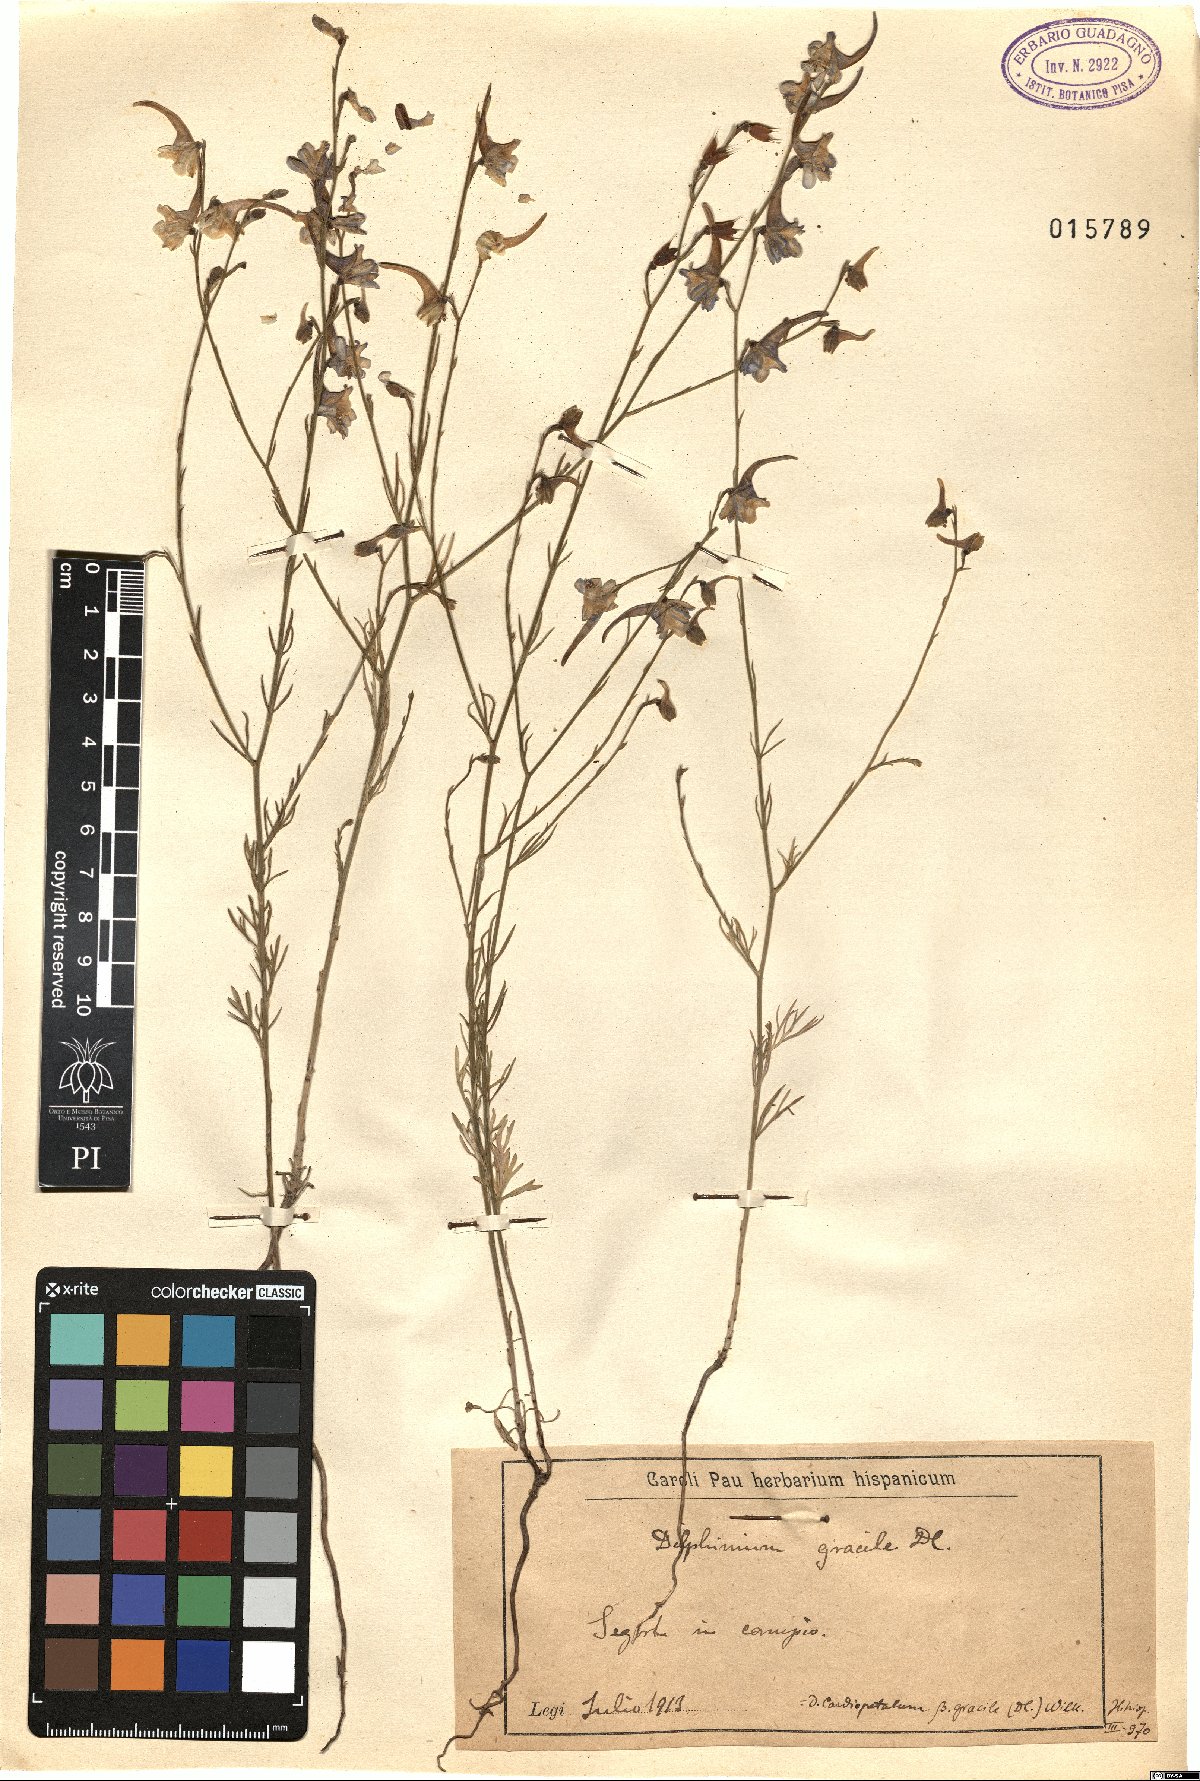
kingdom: Plantae
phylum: Tracheophyta
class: Magnoliopsida
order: Ranunculales
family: Ranunculaceae
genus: Delphinium
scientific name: Delphinium gracile
